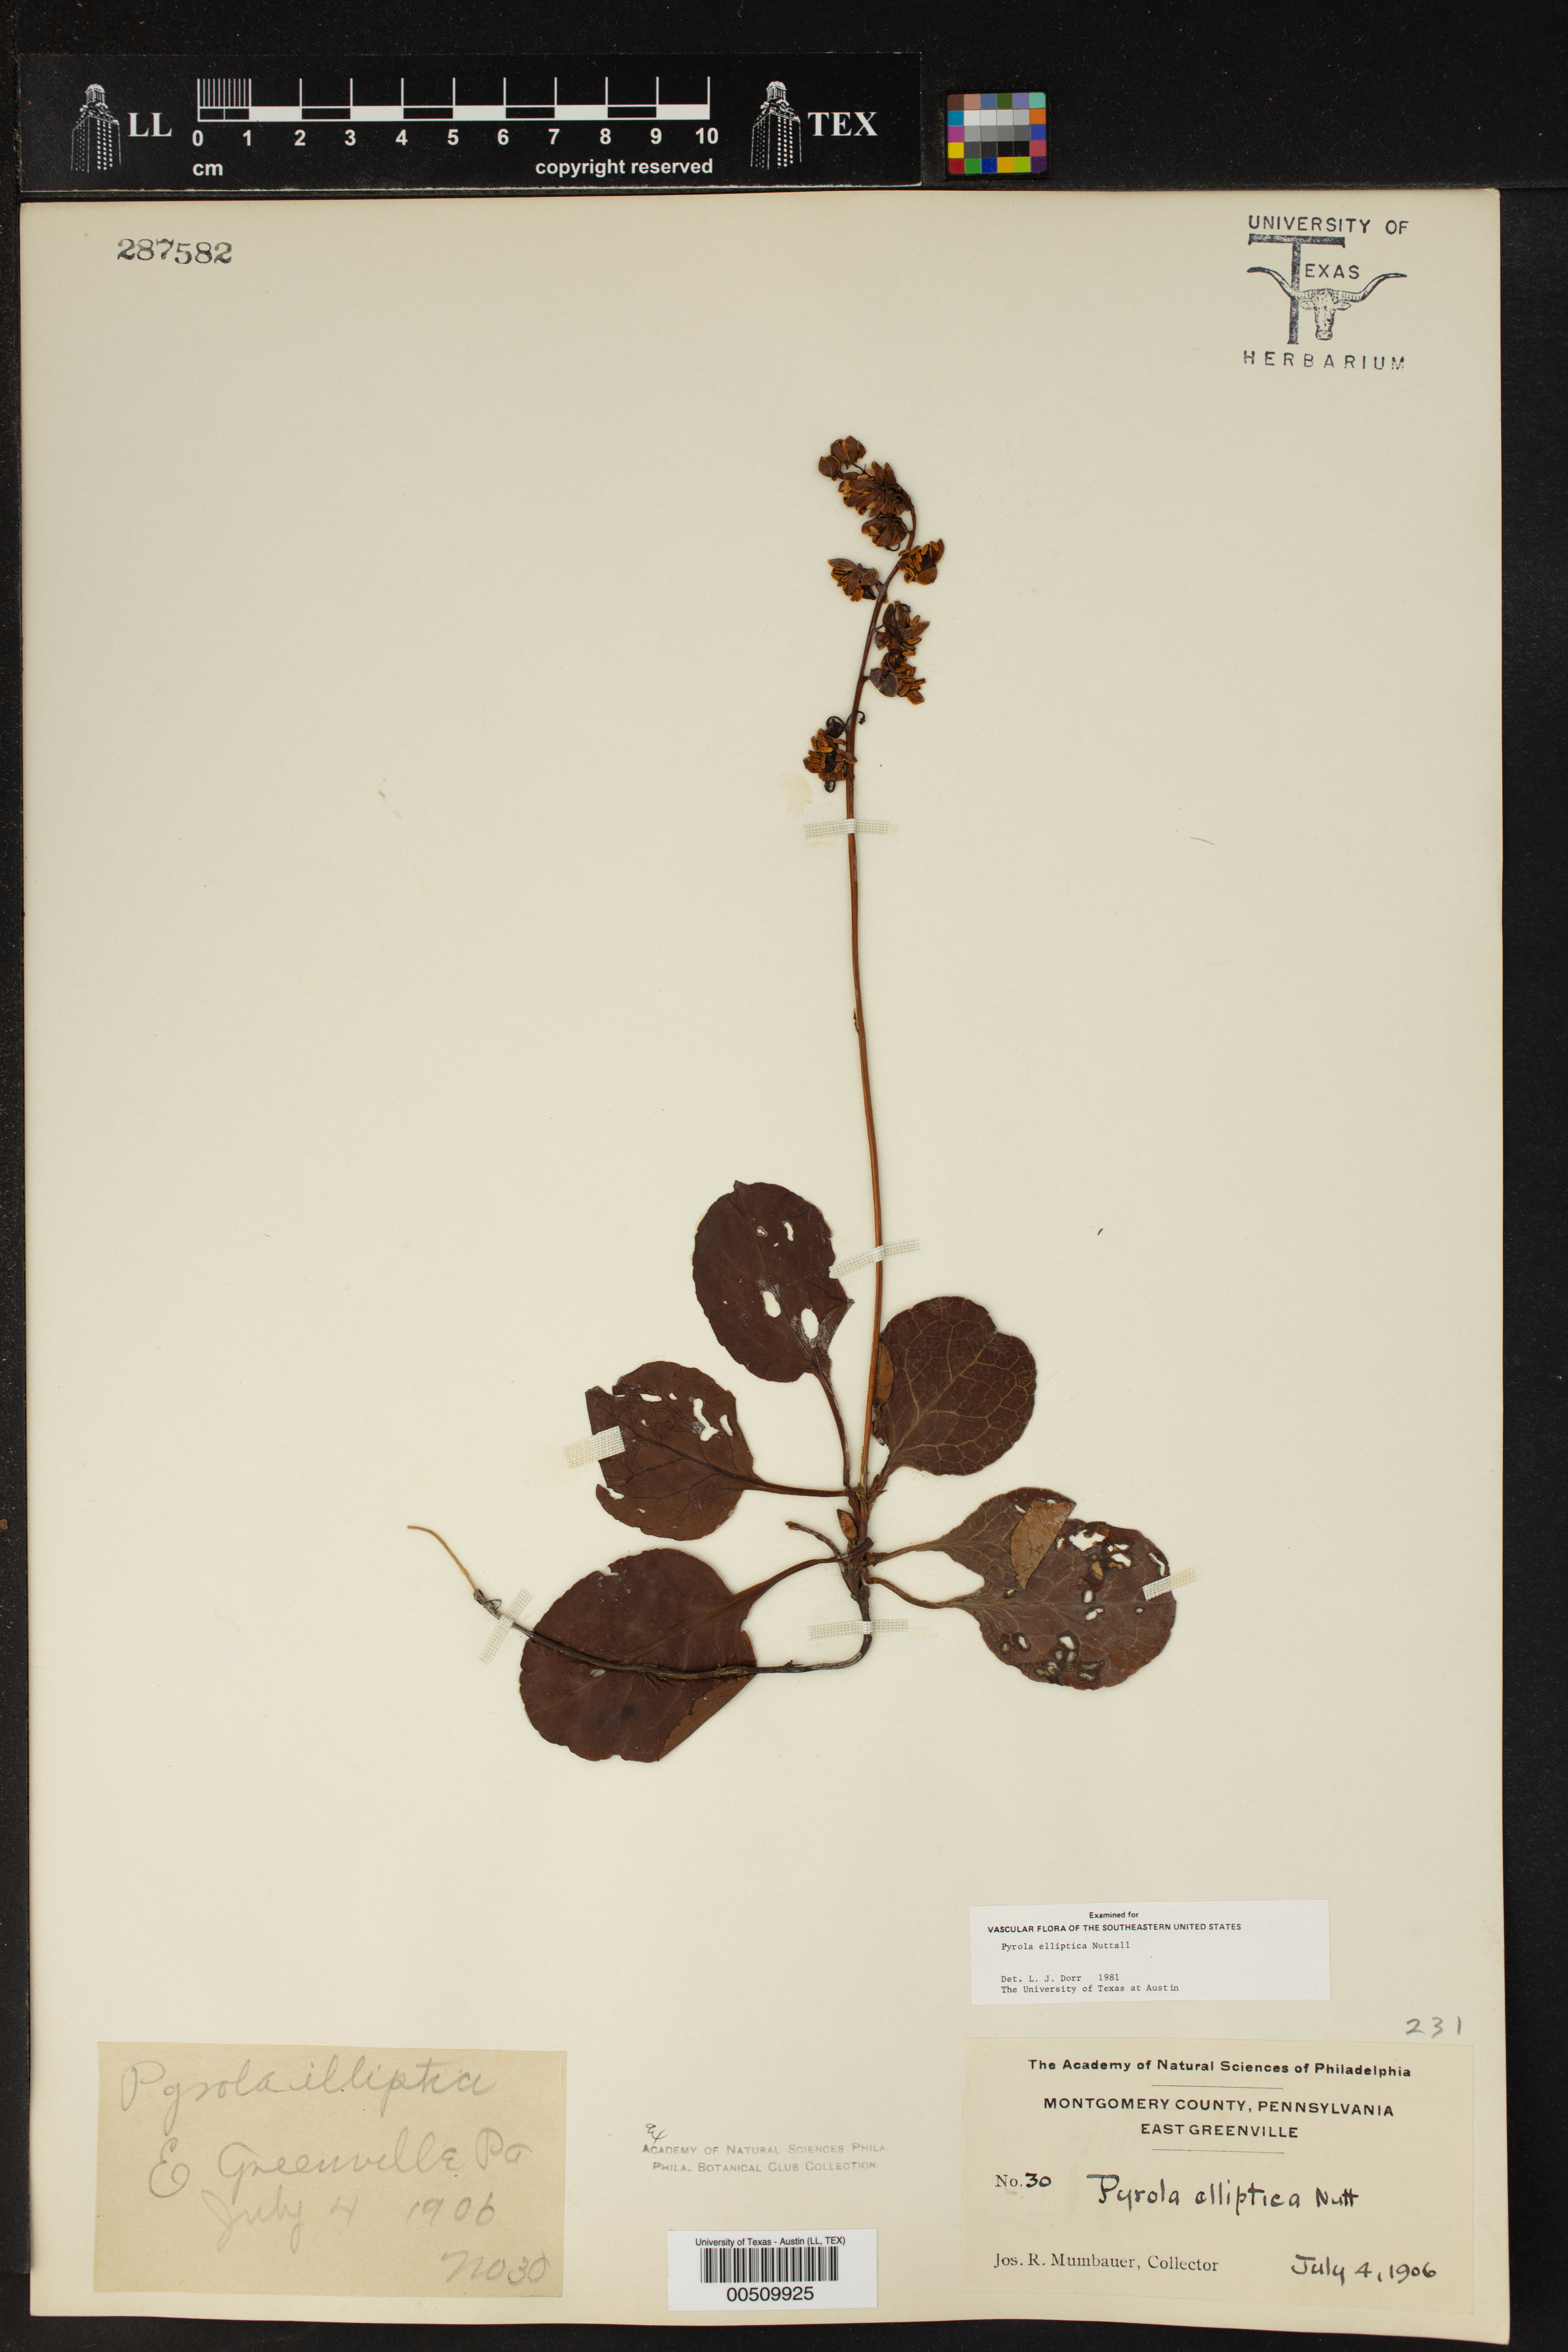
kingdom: Plantae
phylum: Tracheophyta
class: Magnoliopsida
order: Ericales
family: Ericaceae
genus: Pyrola
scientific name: Pyrola elliptica
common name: Shinleaf
